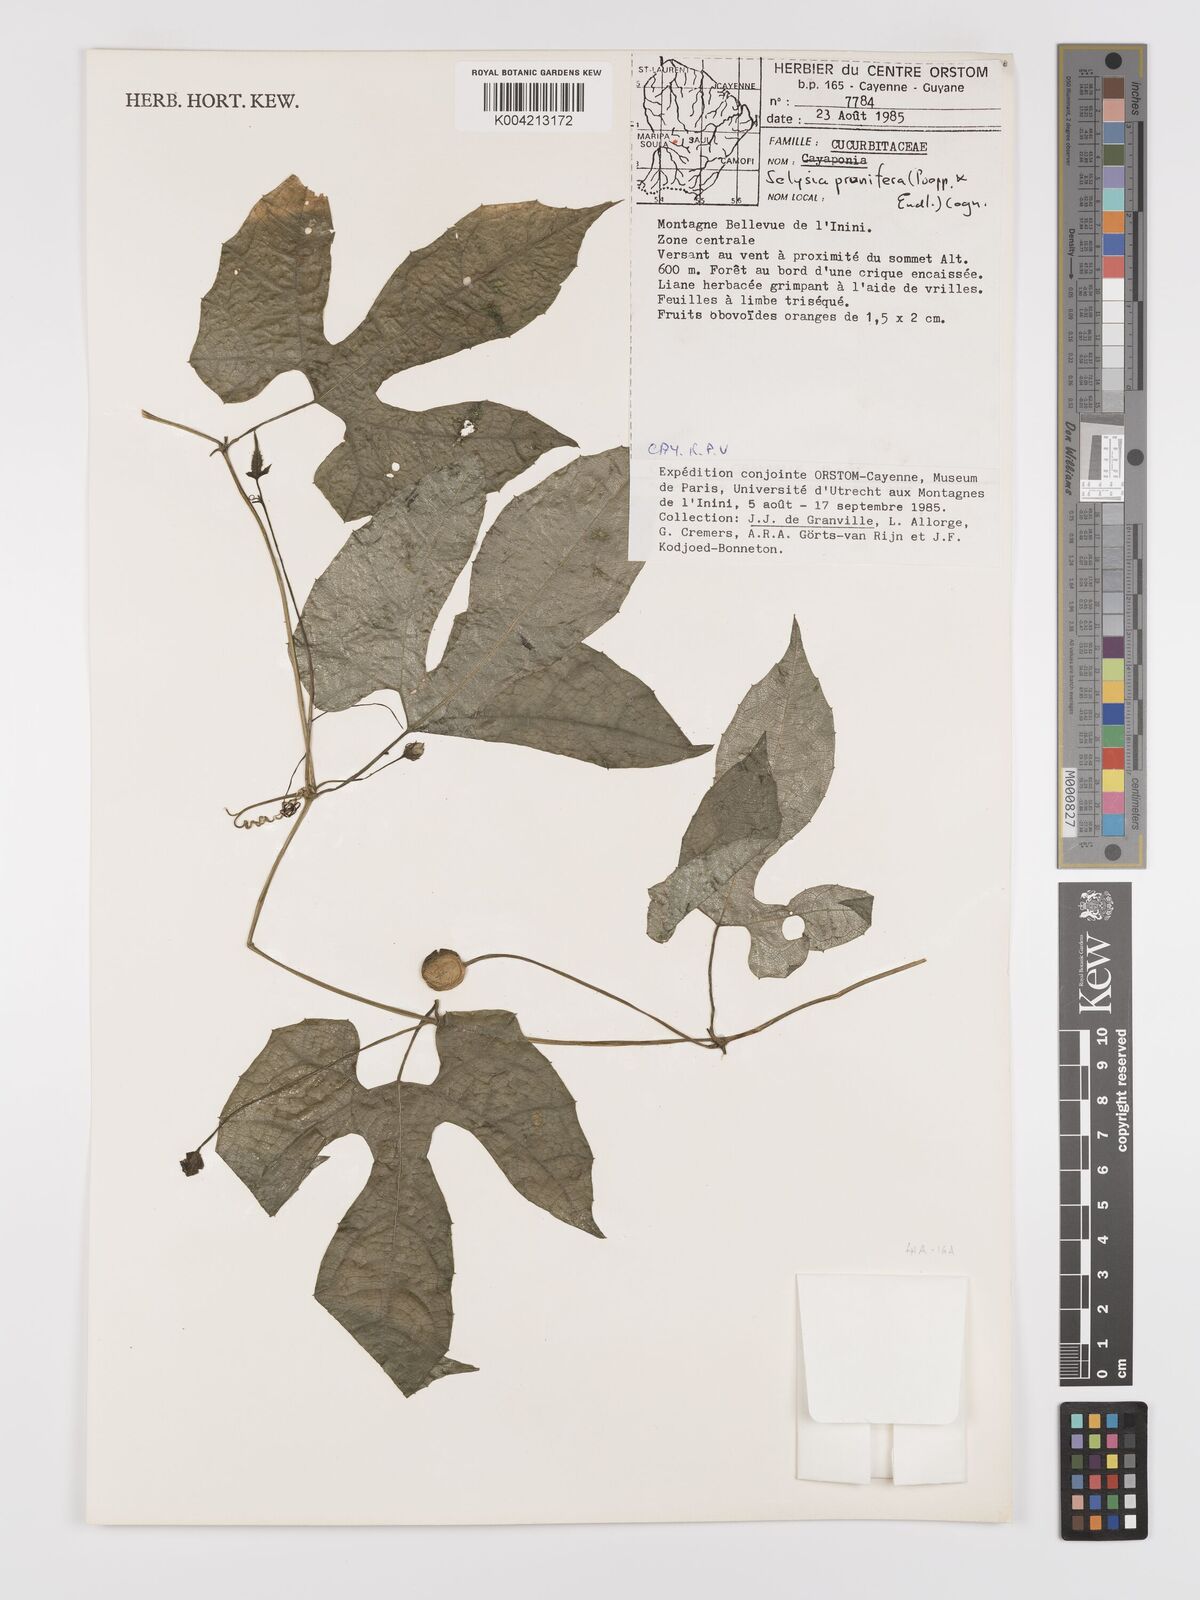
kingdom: Plantae
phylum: Tracheophyta
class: Magnoliopsida
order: Cucurbitales
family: Cucurbitaceae
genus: Cayaponia
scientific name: Cayaponia prunifera
